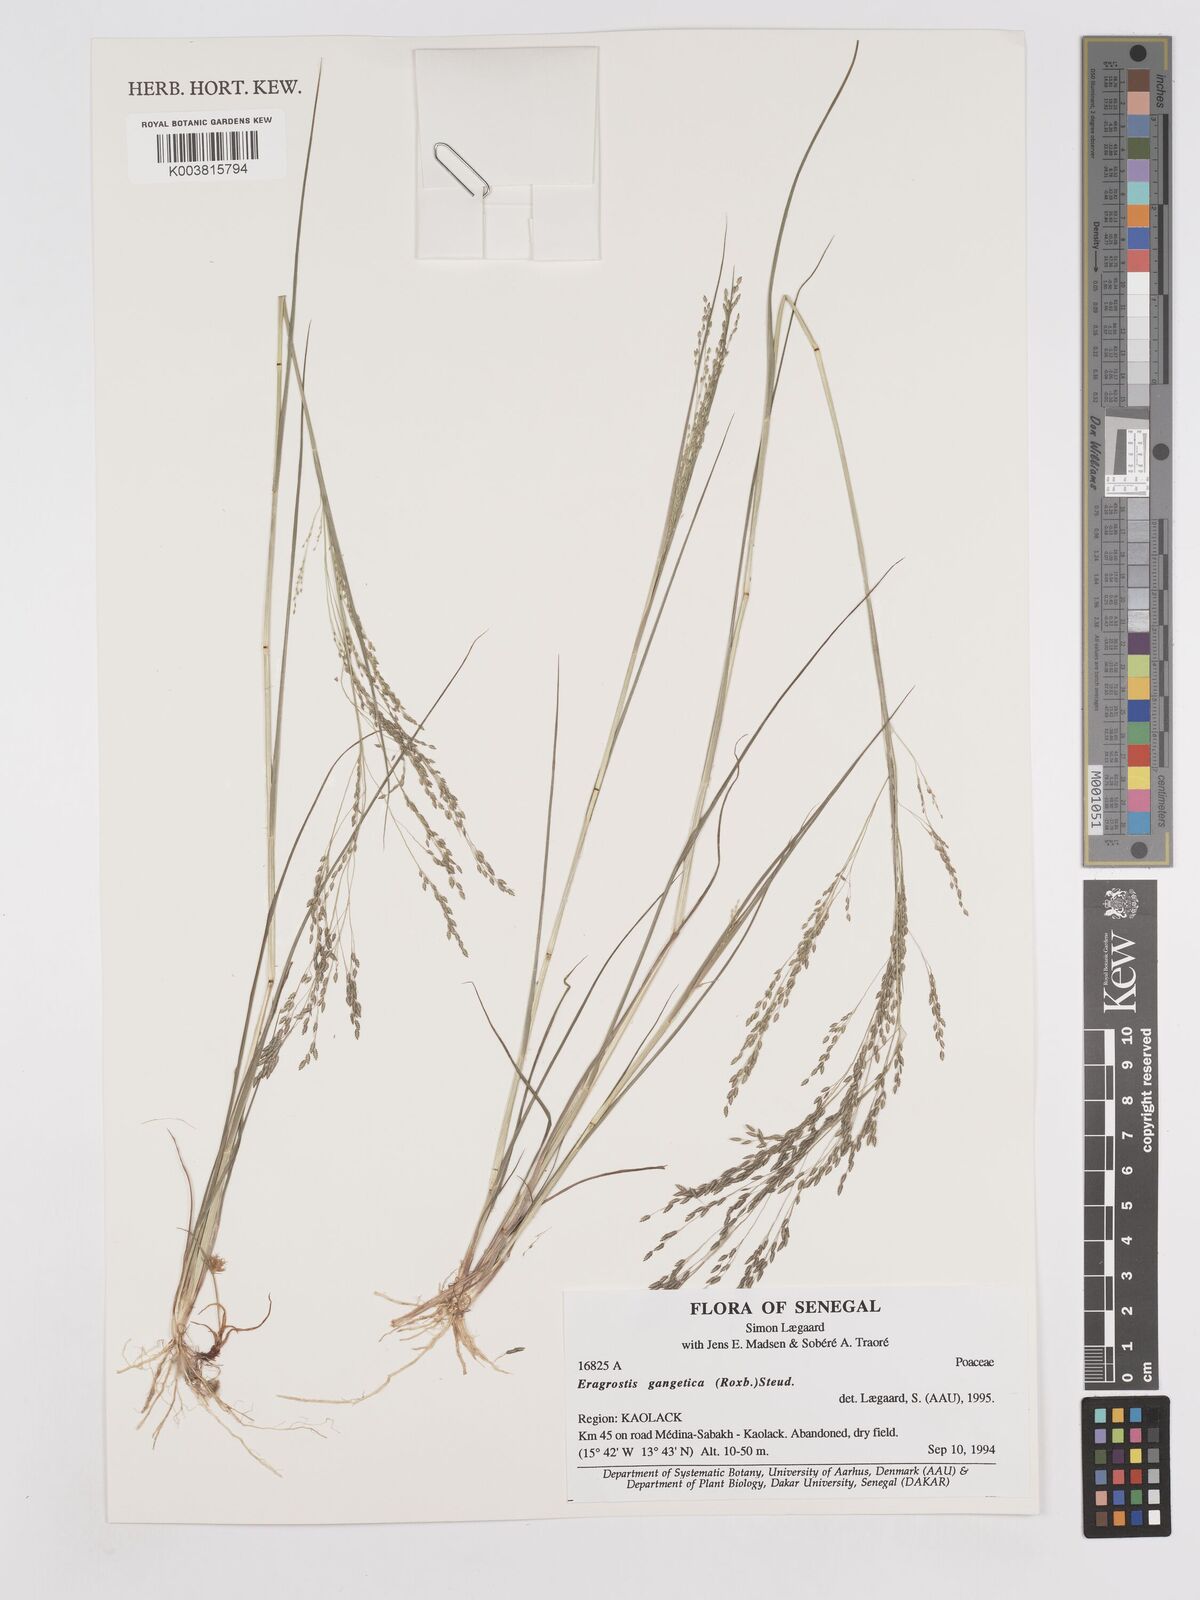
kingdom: Plantae
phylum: Tracheophyta
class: Liliopsida
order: Poales
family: Poaceae
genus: Eragrostis
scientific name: Eragrostis gangetica
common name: Slimflower lovegrass
